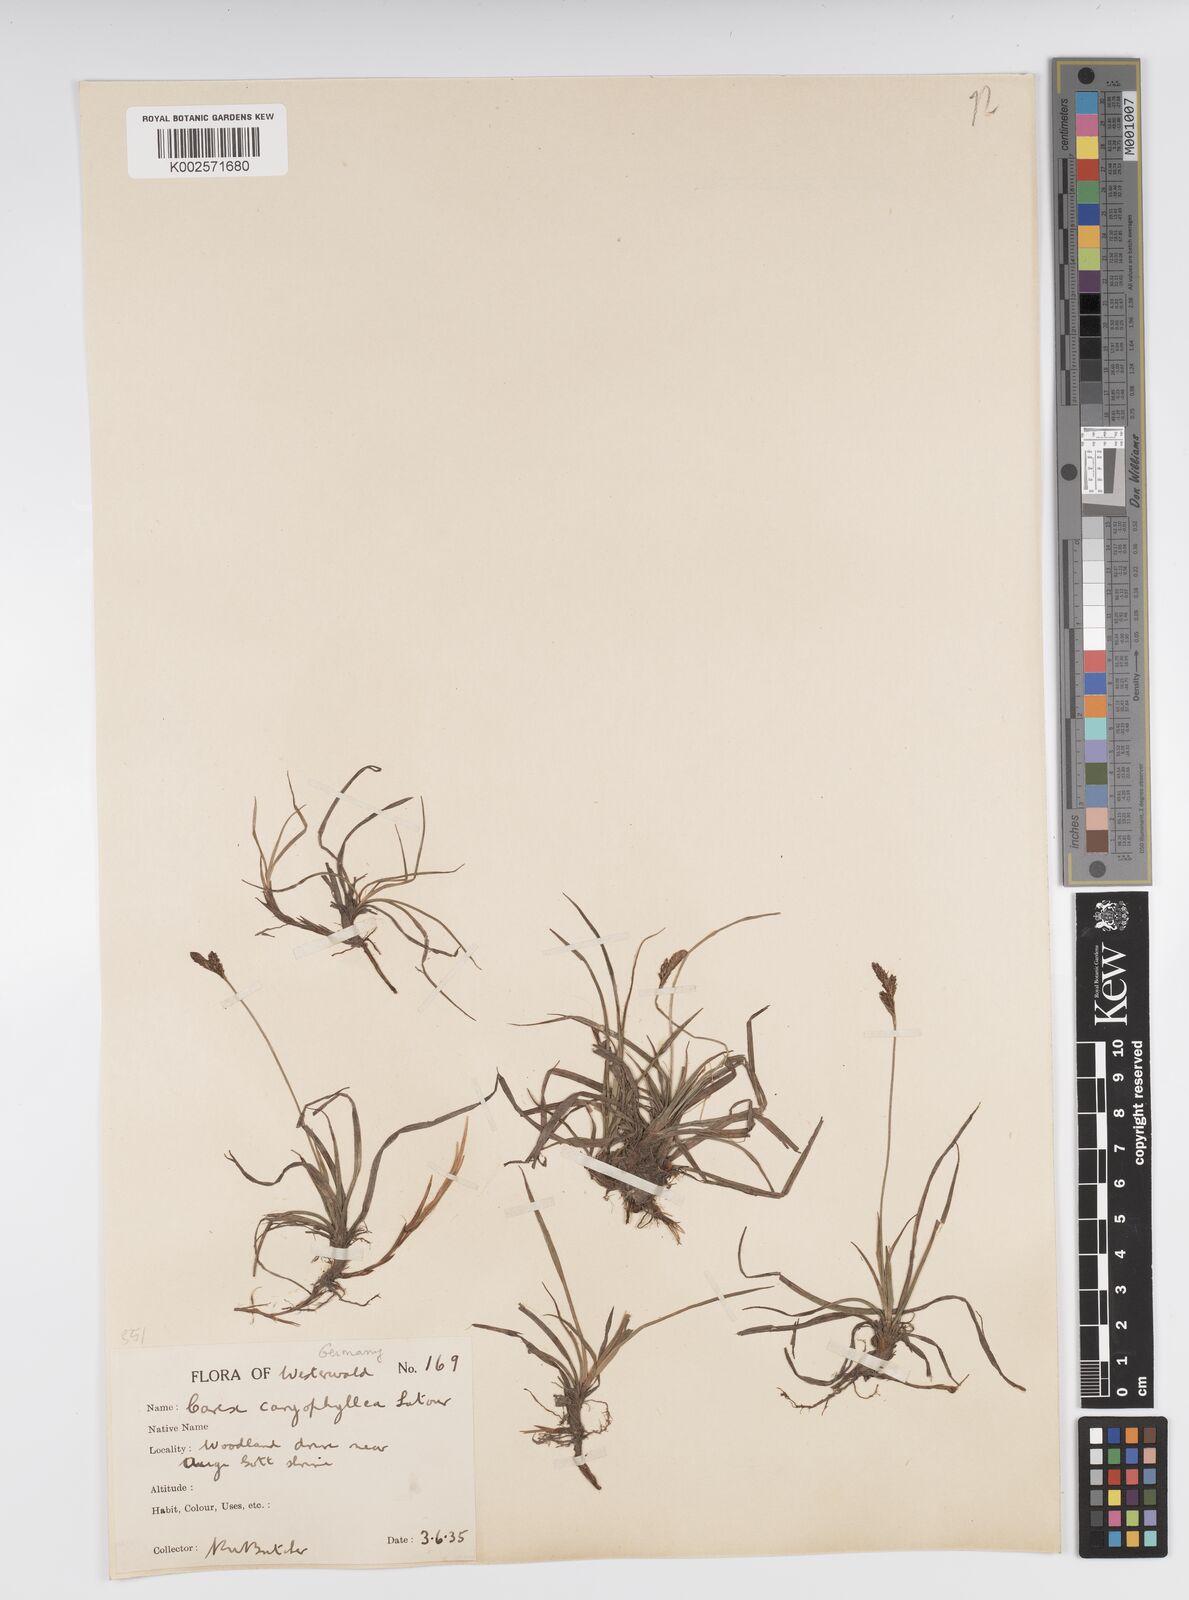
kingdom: Plantae
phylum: Tracheophyta
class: Liliopsida
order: Poales
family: Cyperaceae
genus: Carex
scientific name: Carex caryophyllea
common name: Spring sedge
